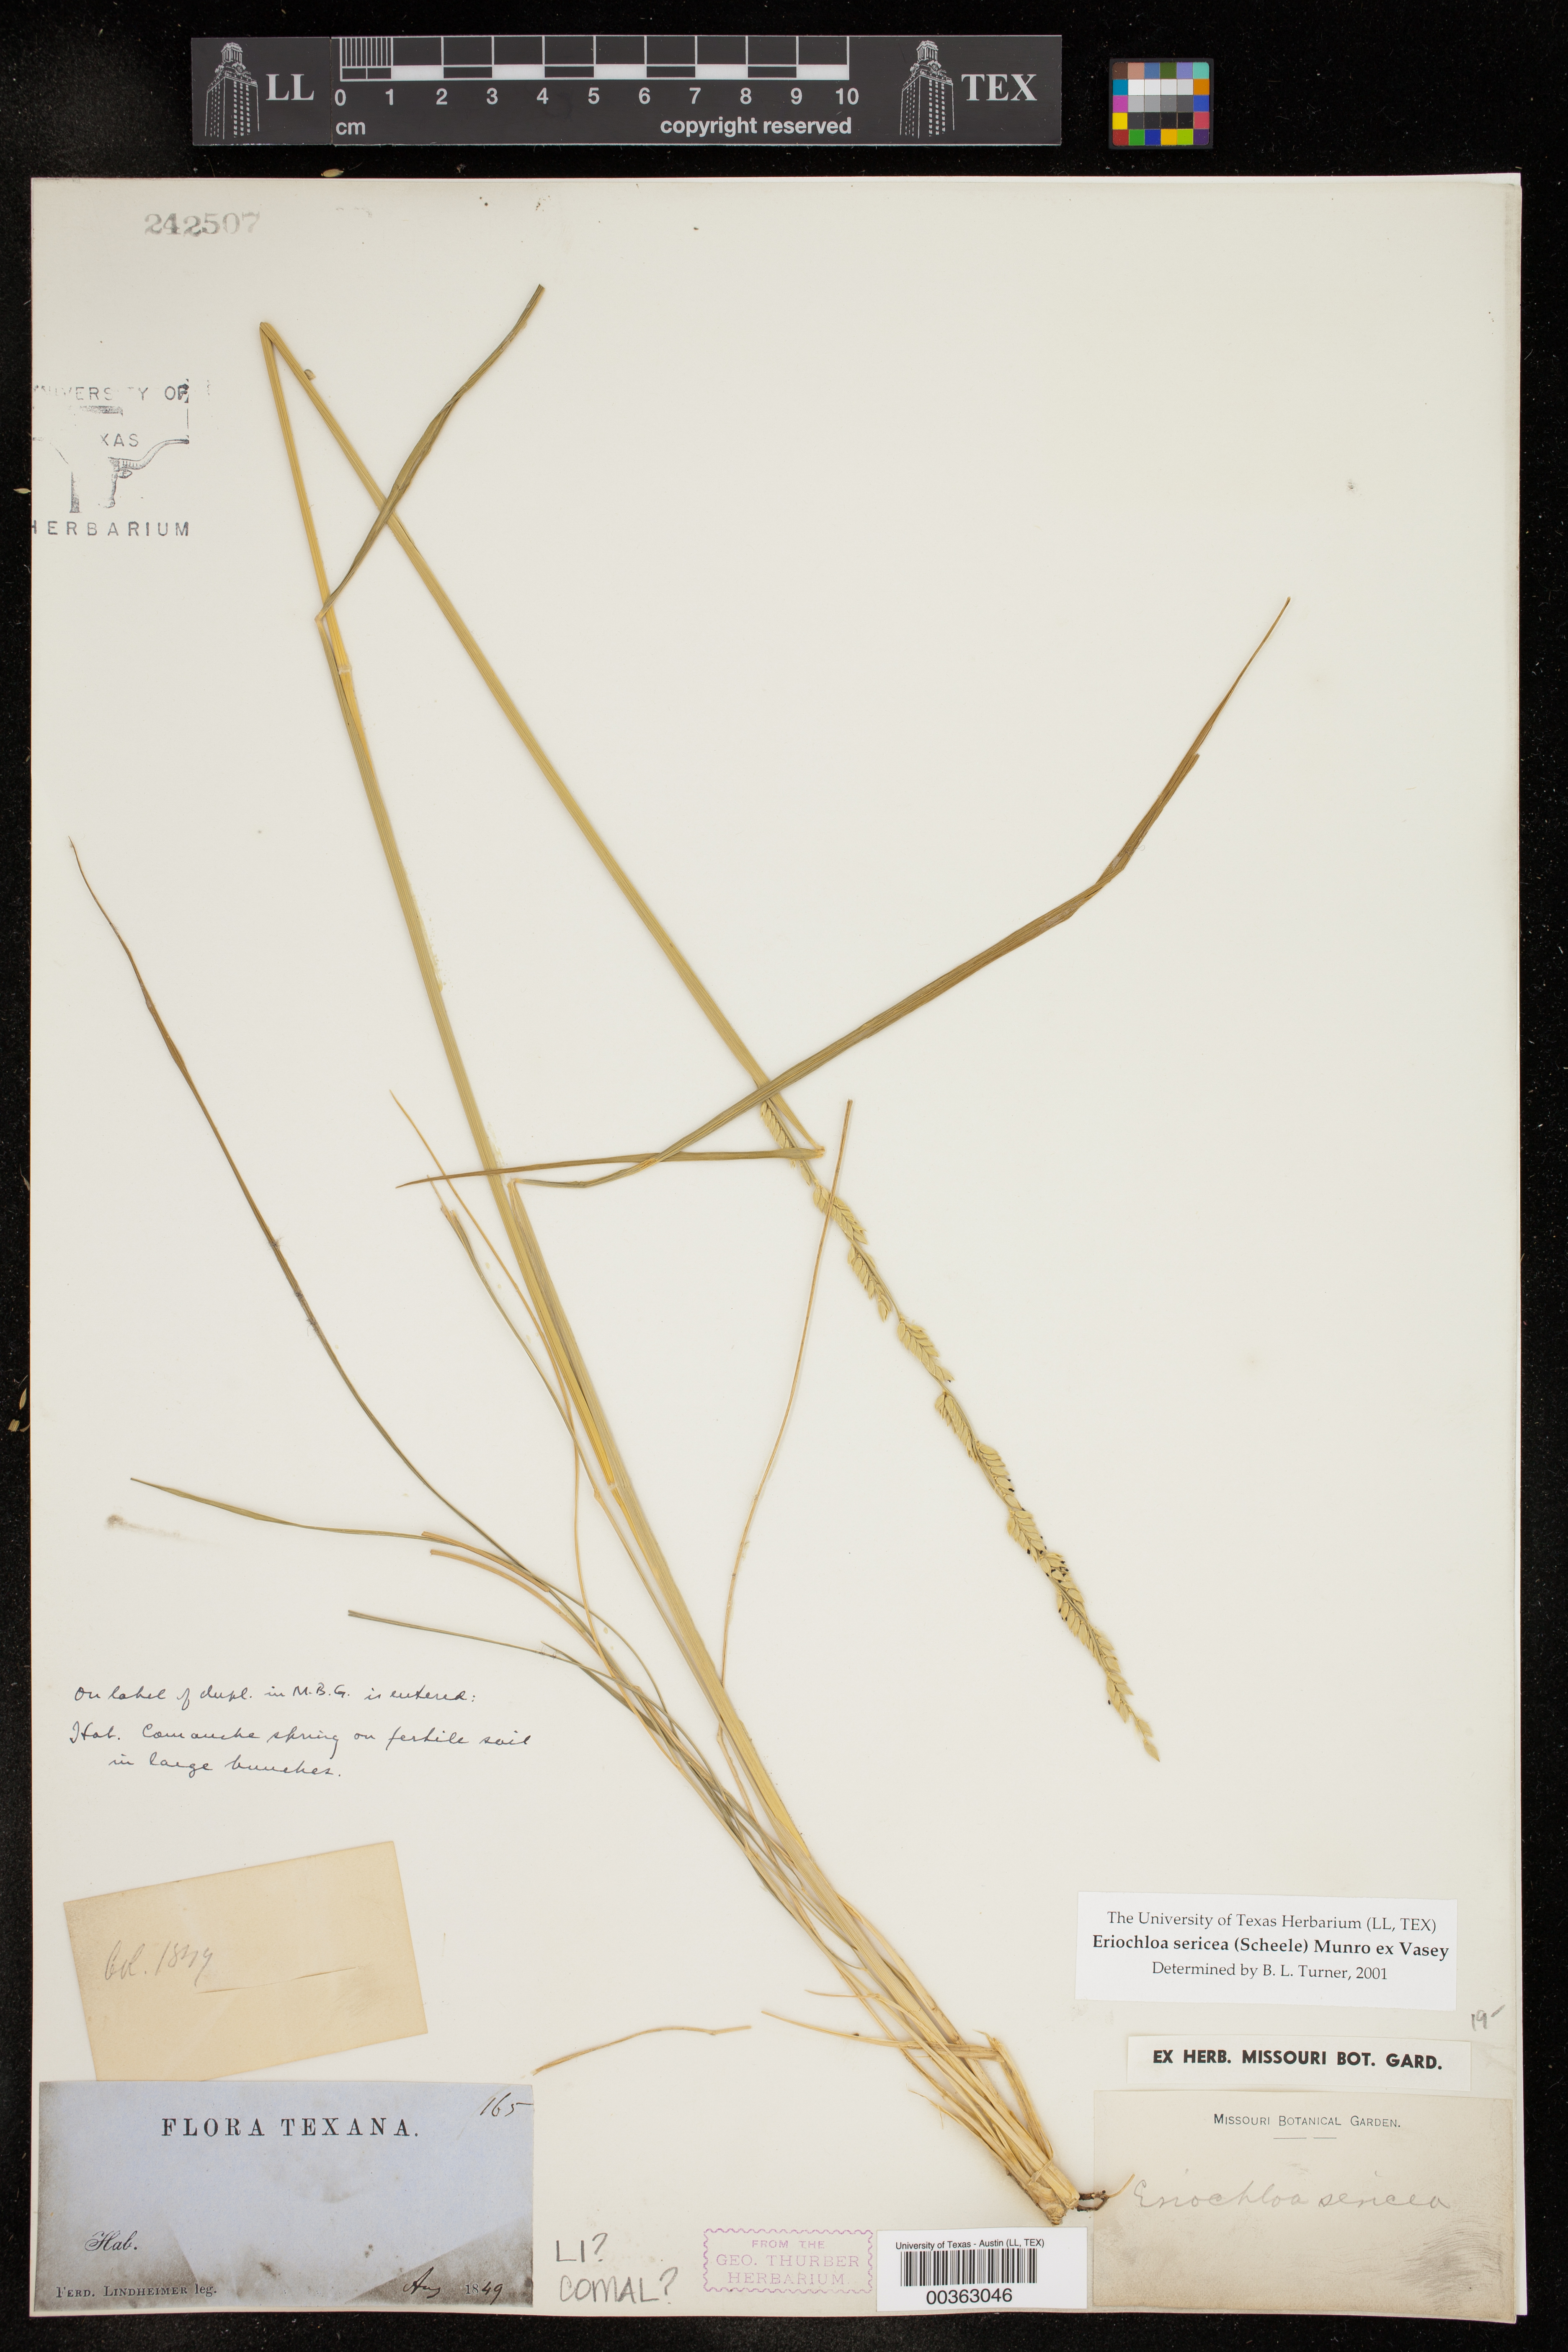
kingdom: Plantae
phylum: Tracheophyta
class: Liliopsida
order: Poales
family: Poaceae
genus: Eriochloa
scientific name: Eriochloa sericea
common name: Texas cup grass
